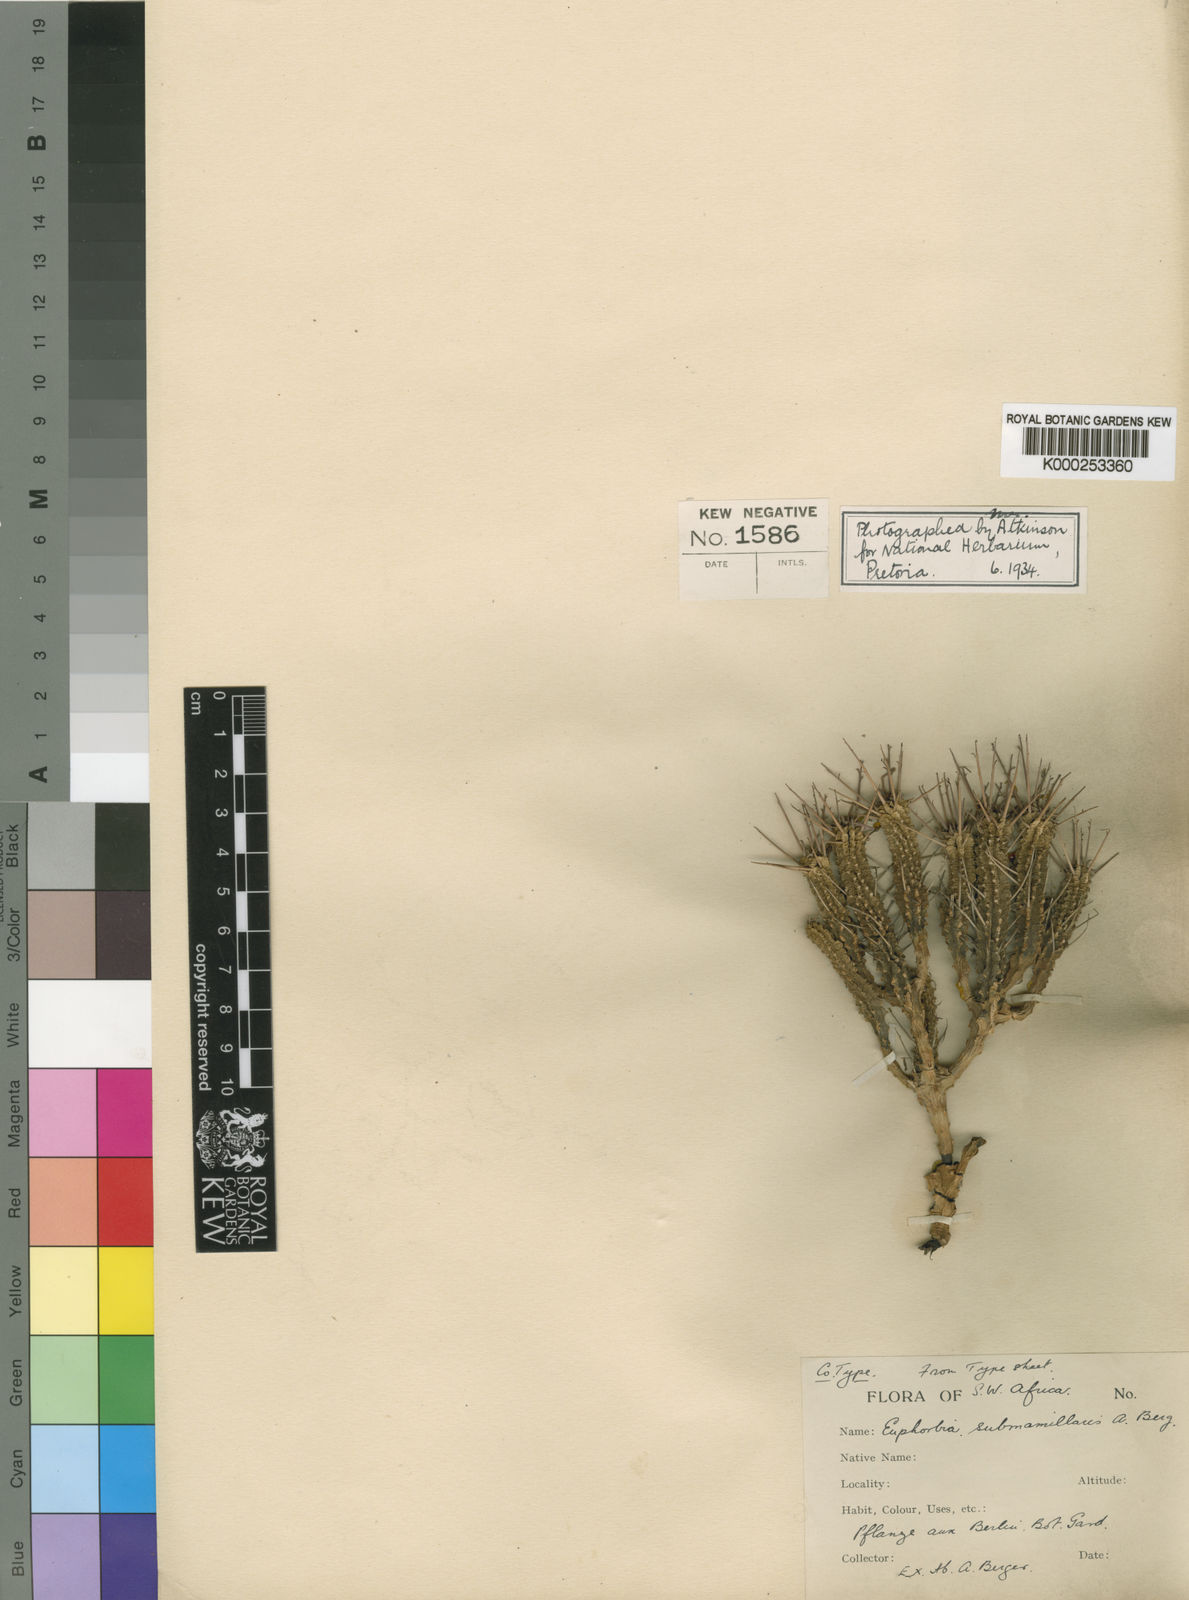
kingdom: Plantae
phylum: Tracheophyta
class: Magnoliopsida
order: Malpighiales
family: Euphorbiaceae
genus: Euphorbia
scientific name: Euphorbia submamillaris
